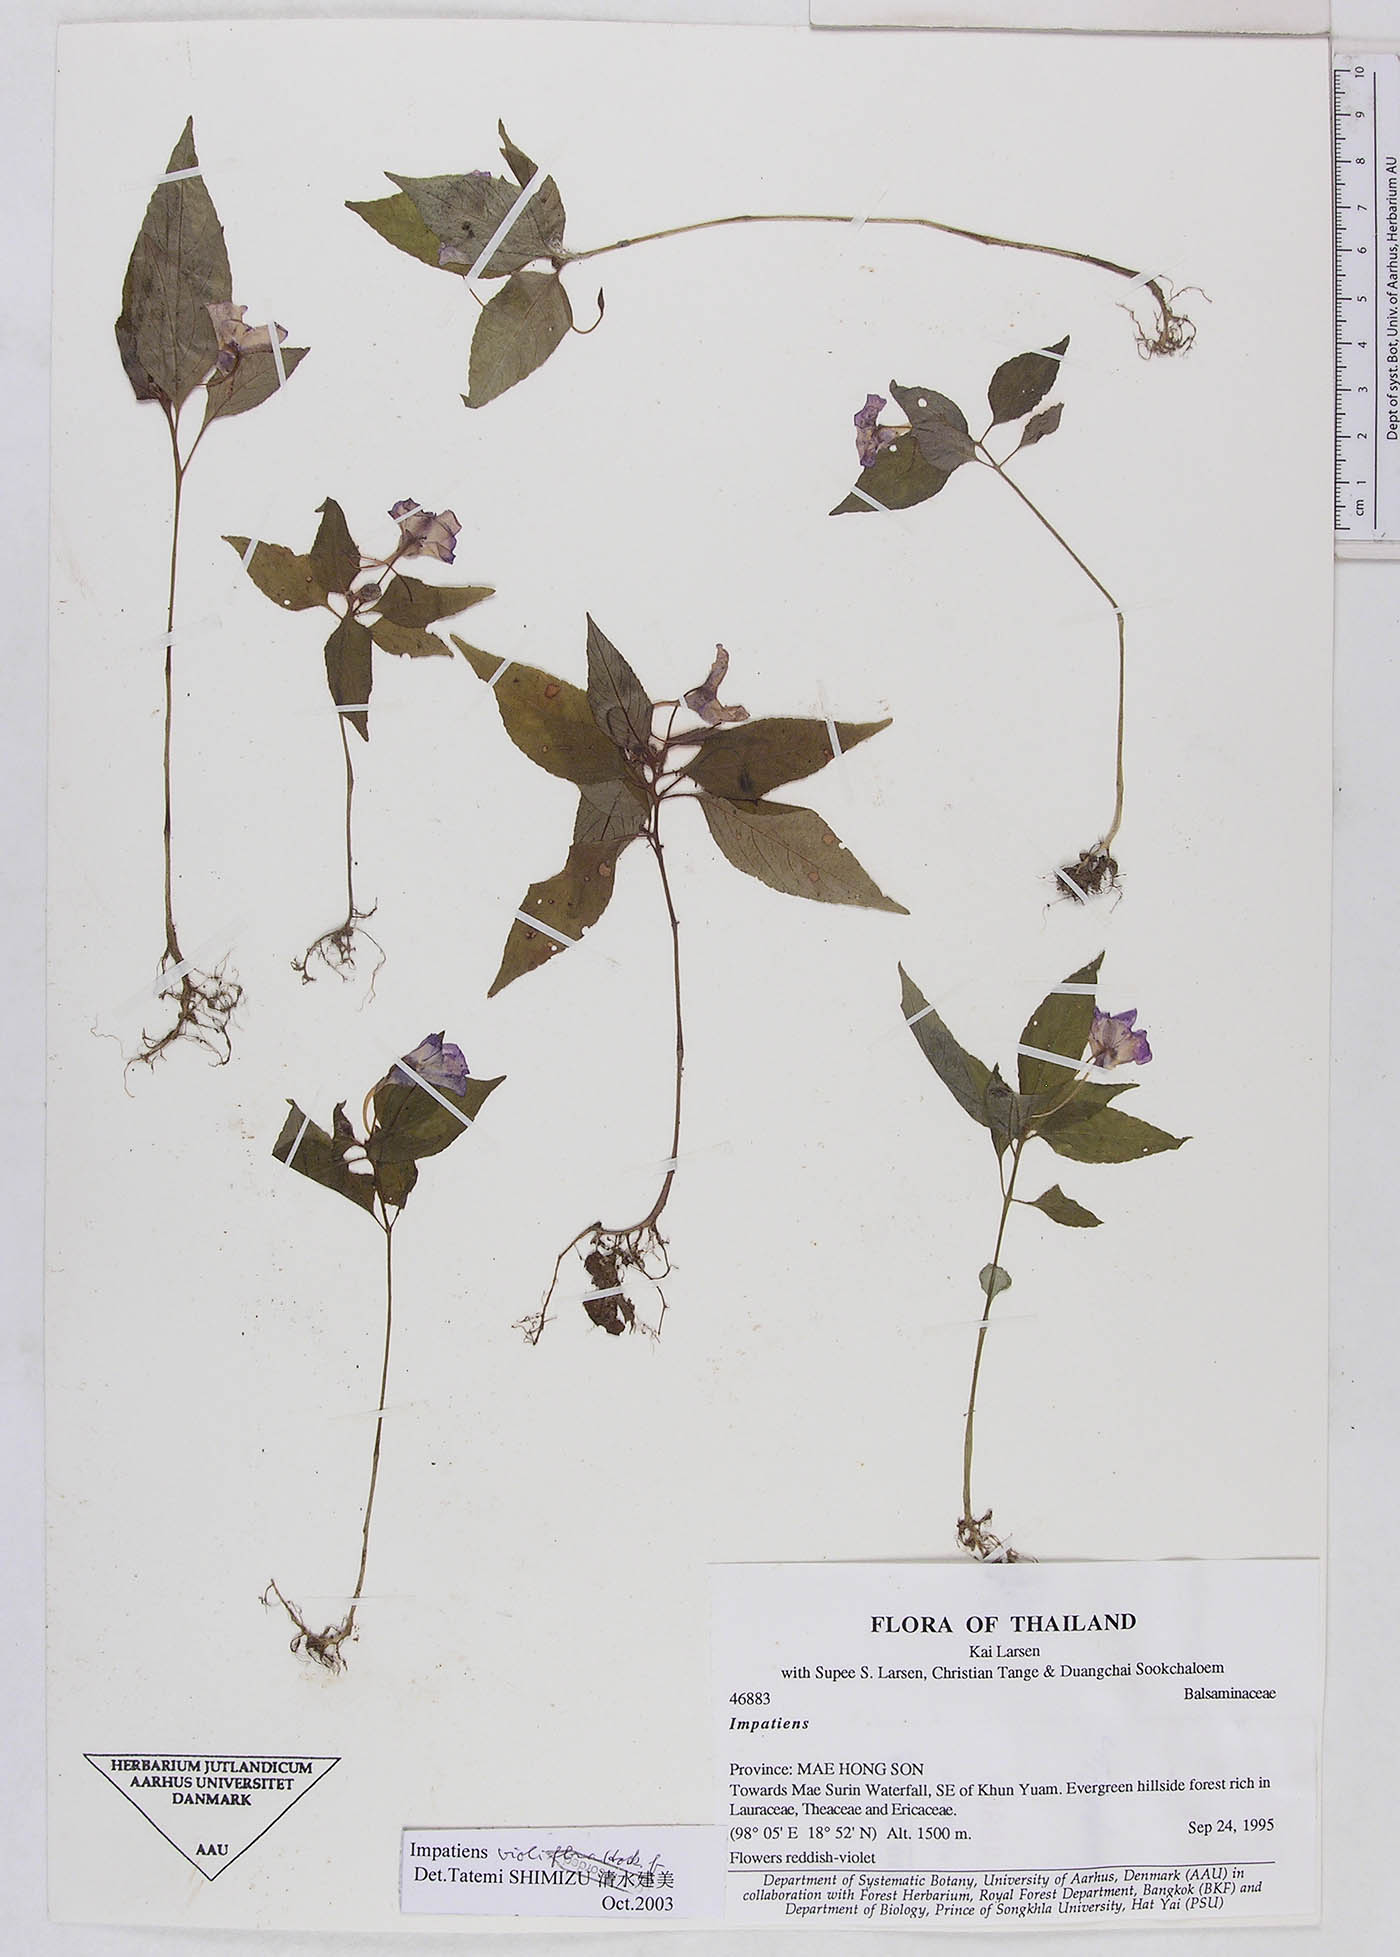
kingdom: Plantae
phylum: Tracheophyta
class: Magnoliopsida
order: Ericales
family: Balsaminaceae
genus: Impatiens
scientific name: Impatiens santisukii
